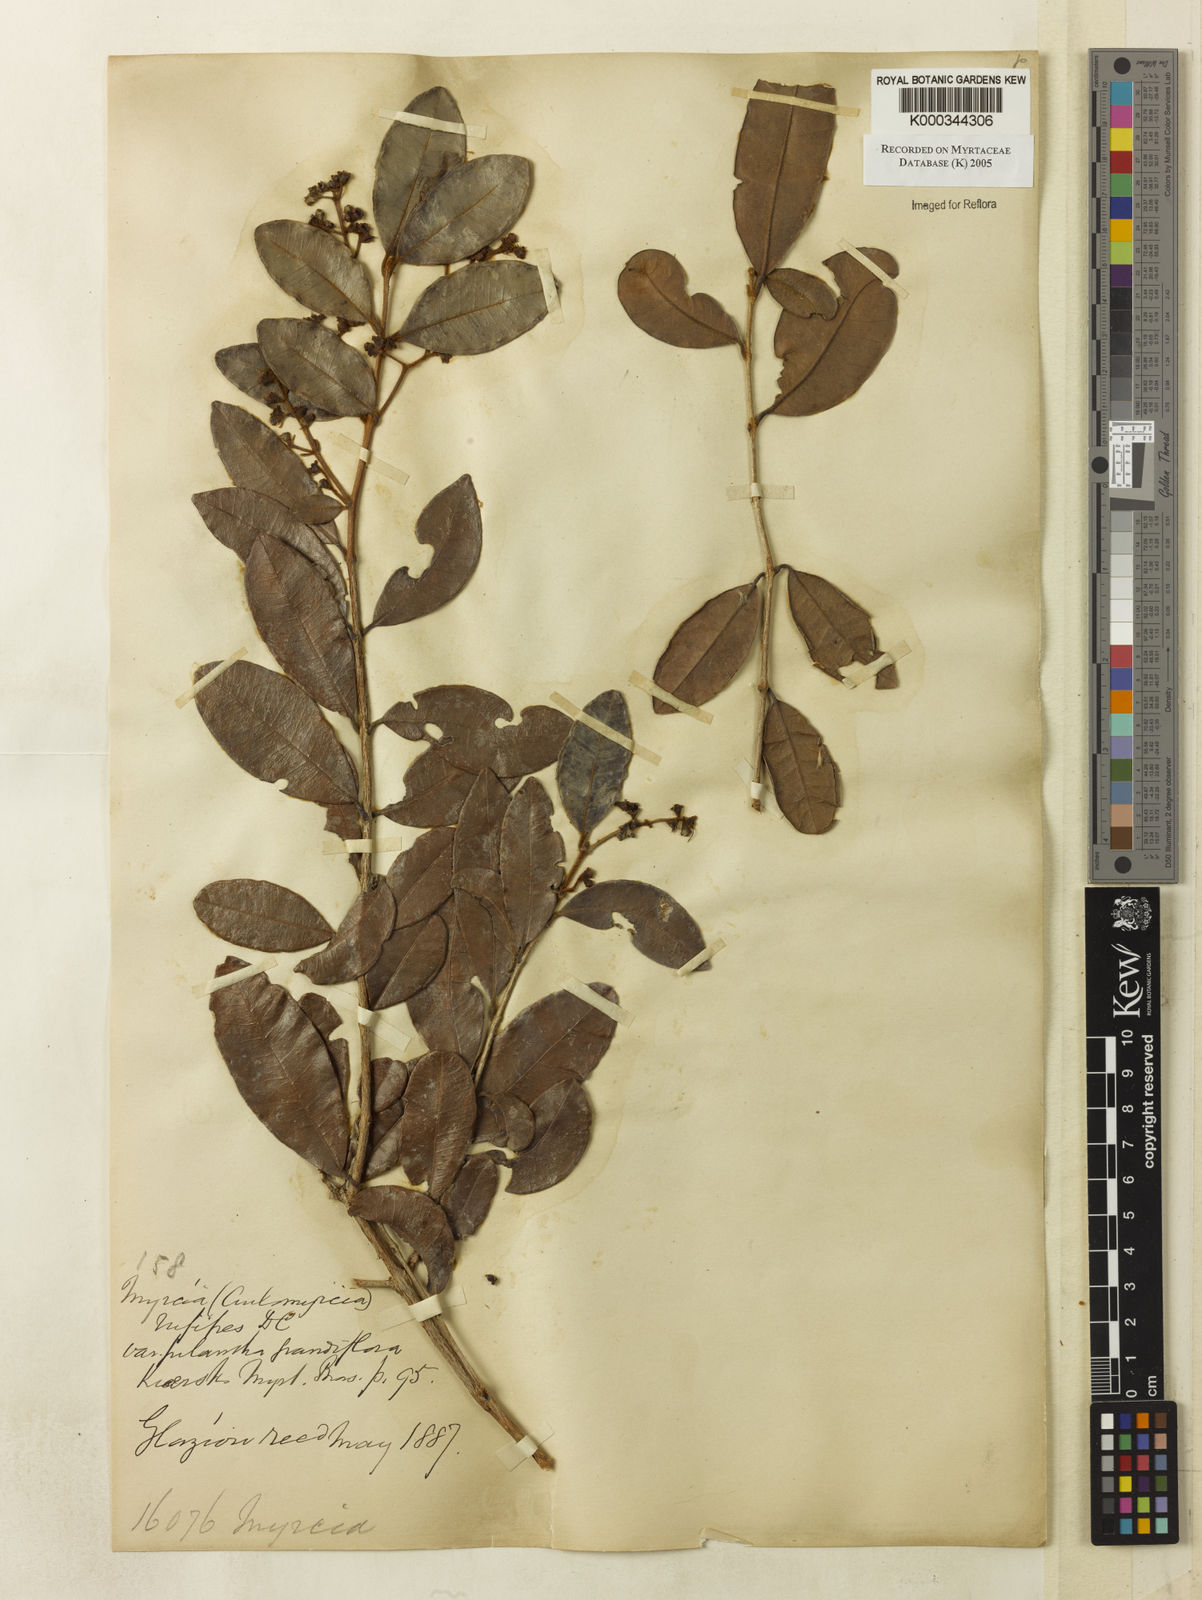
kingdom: Plantae
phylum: Tracheophyta
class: Magnoliopsida
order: Myrtales
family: Myrtaceae
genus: Myrcia
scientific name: Myrcia rufipes
